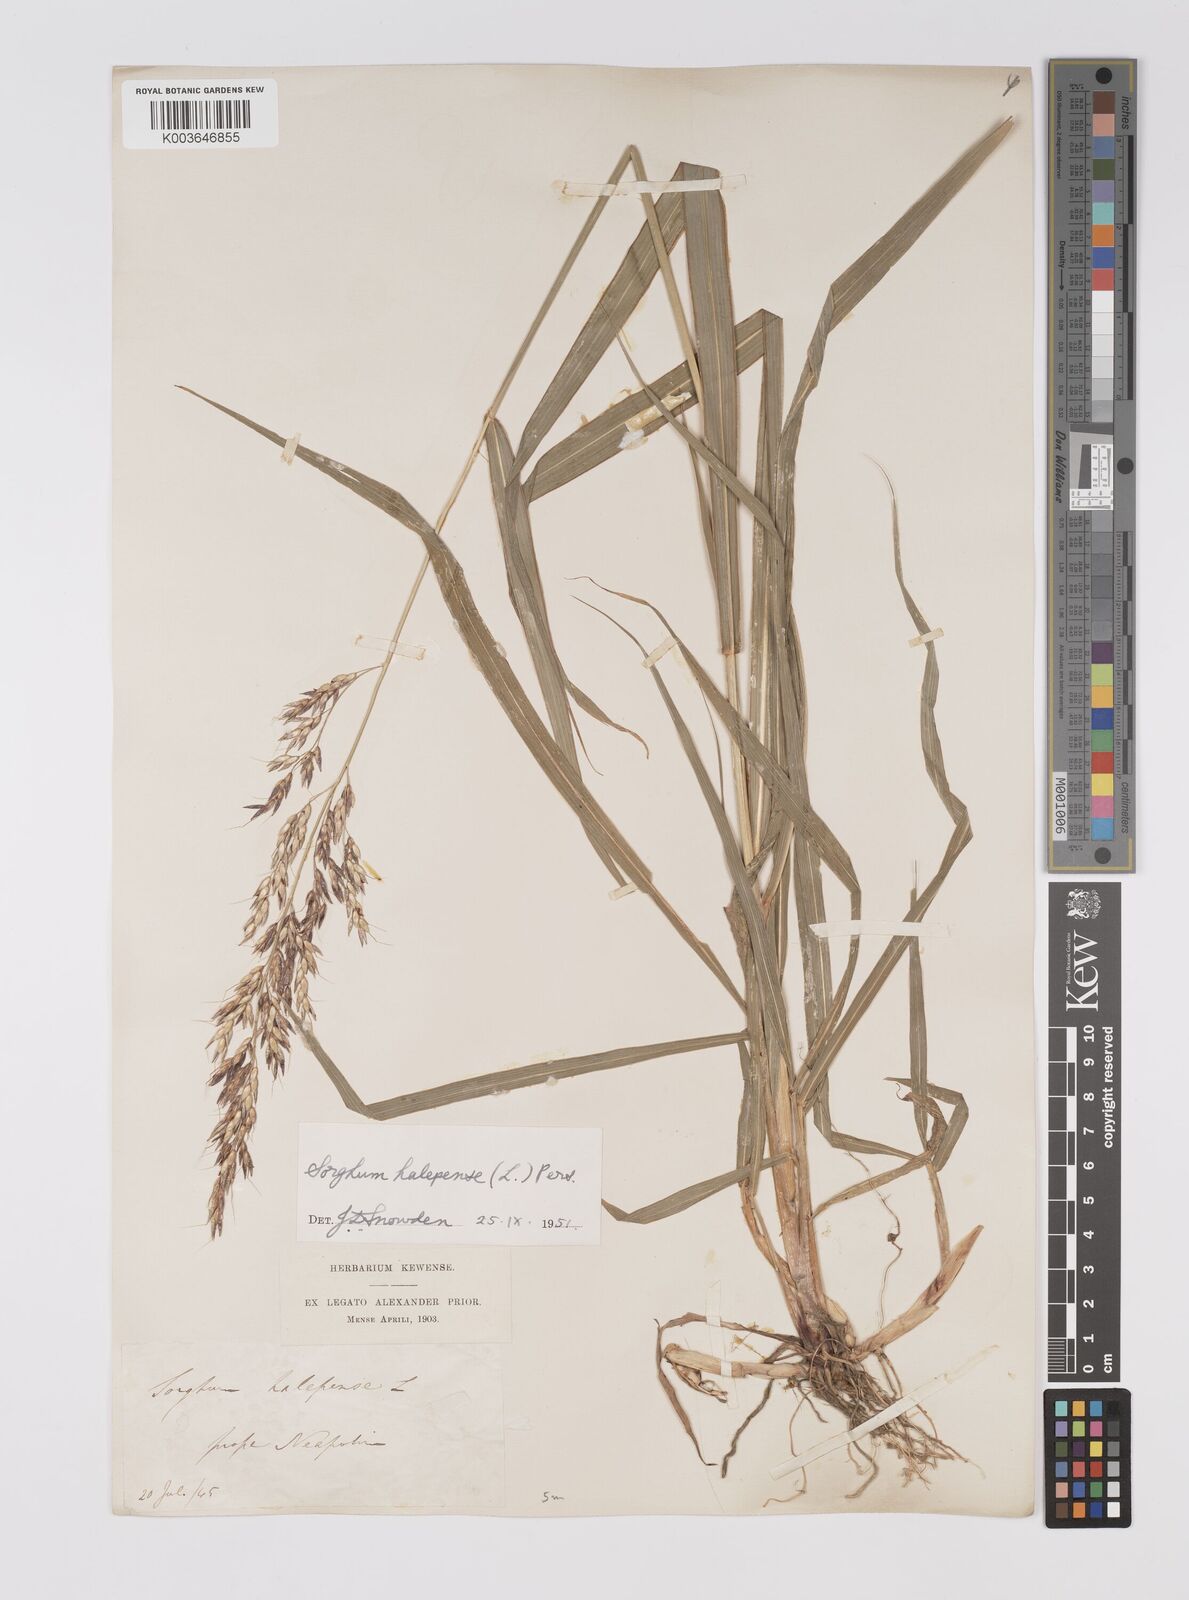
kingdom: Plantae
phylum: Tracheophyta
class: Liliopsida
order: Poales
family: Poaceae
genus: Sorghum
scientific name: Sorghum halepense
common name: Johnson-grass
